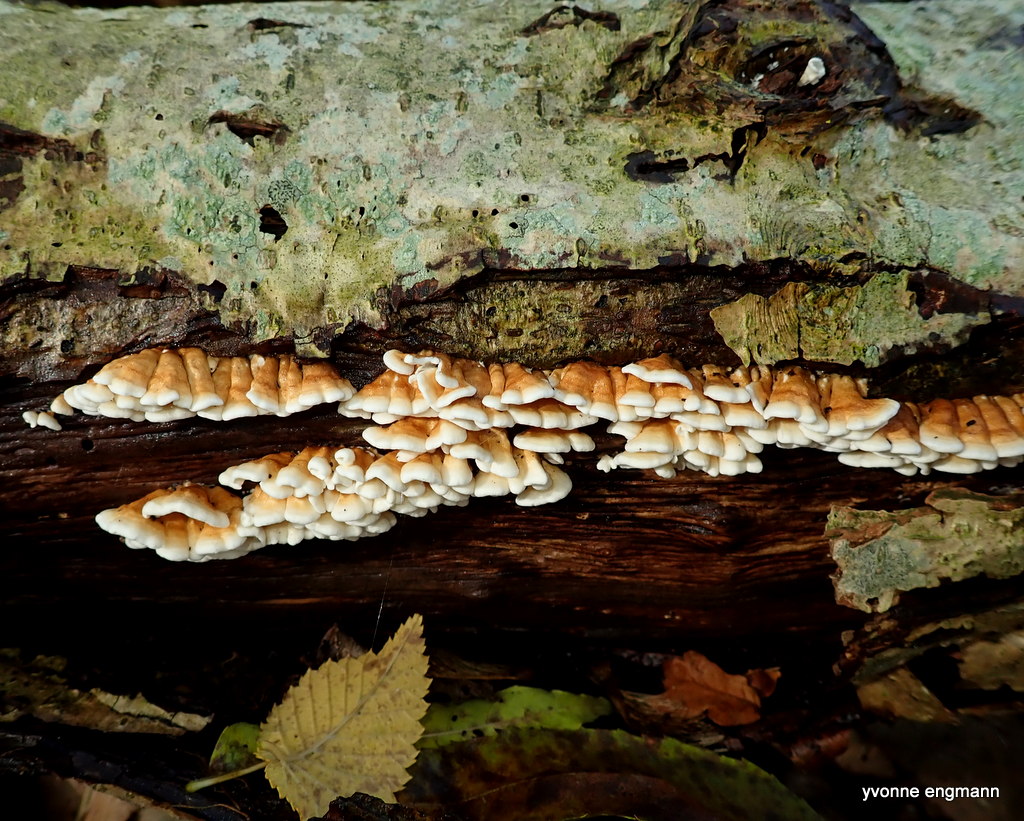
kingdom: Fungi
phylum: Basidiomycota
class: Agaricomycetes
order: Amylocorticiales
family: Amylocorticiaceae
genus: Plicaturopsis
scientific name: Plicaturopsis crispa
